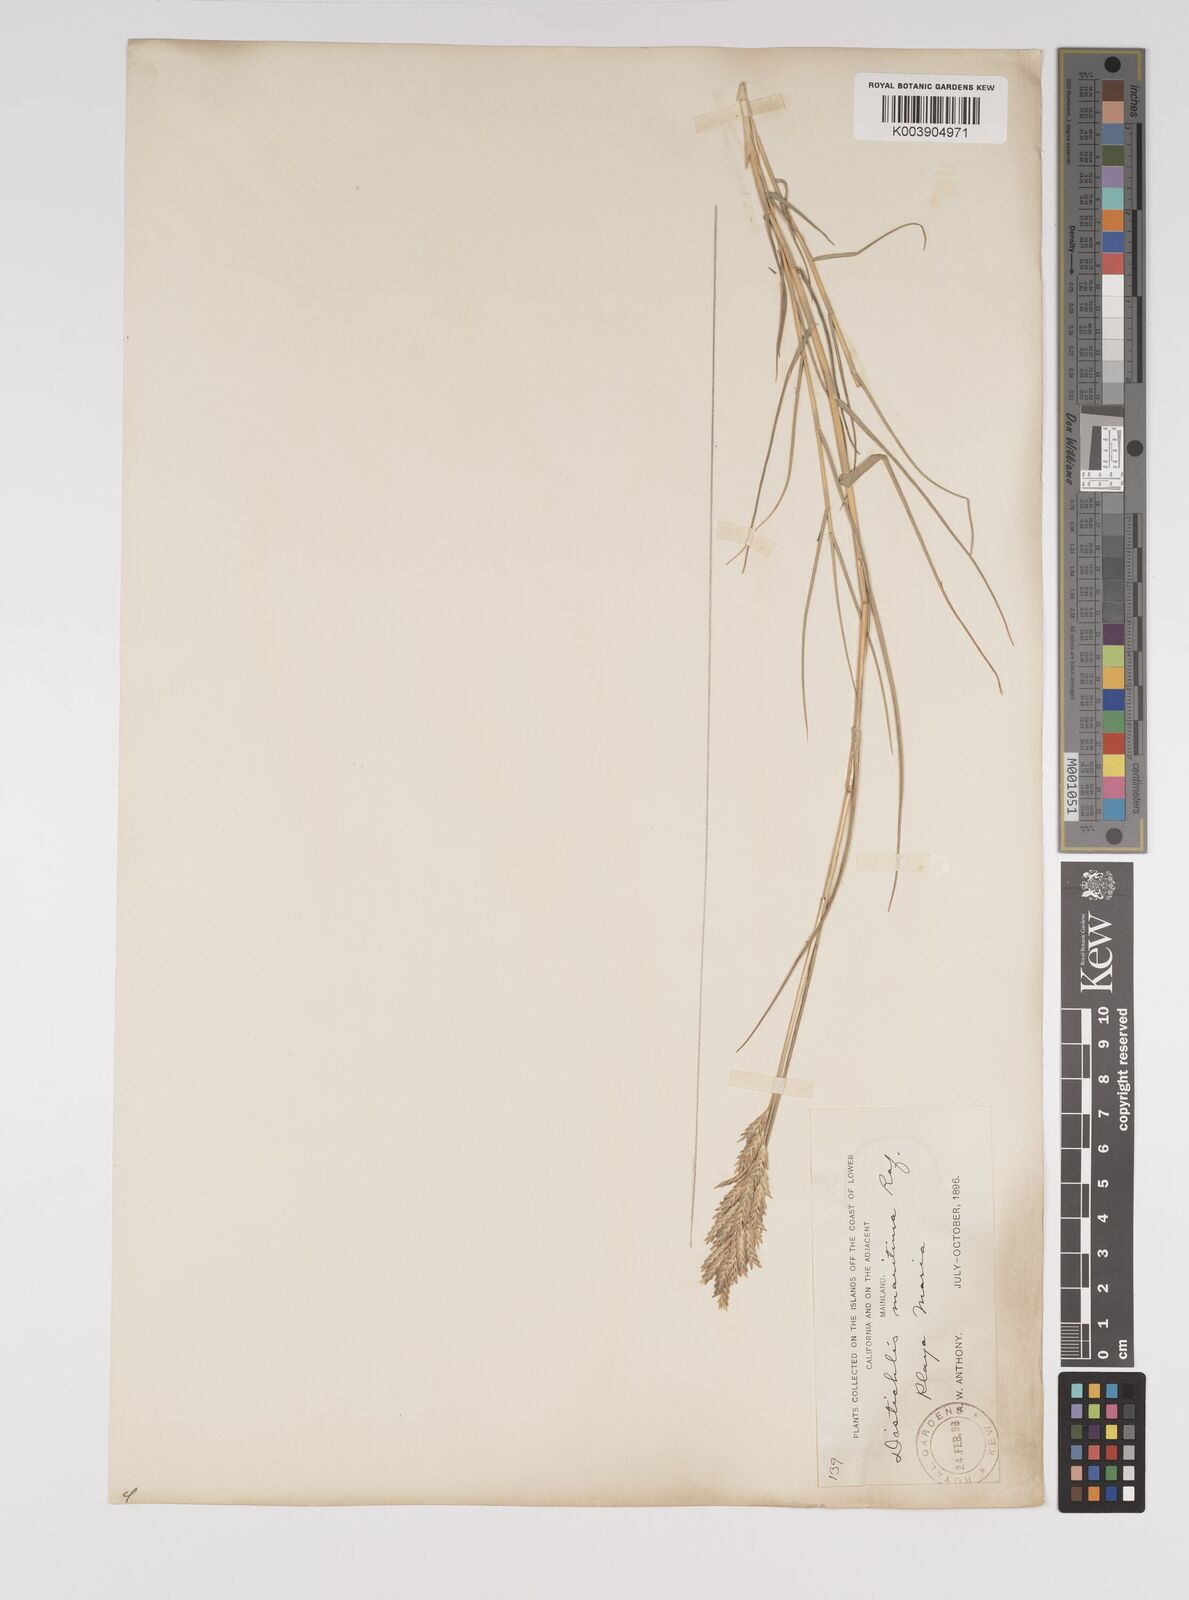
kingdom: Plantae
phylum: Tracheophyta
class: Liliopsida
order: Poales
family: Poaceae
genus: Distichlis
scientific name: Distichlis palmeri
